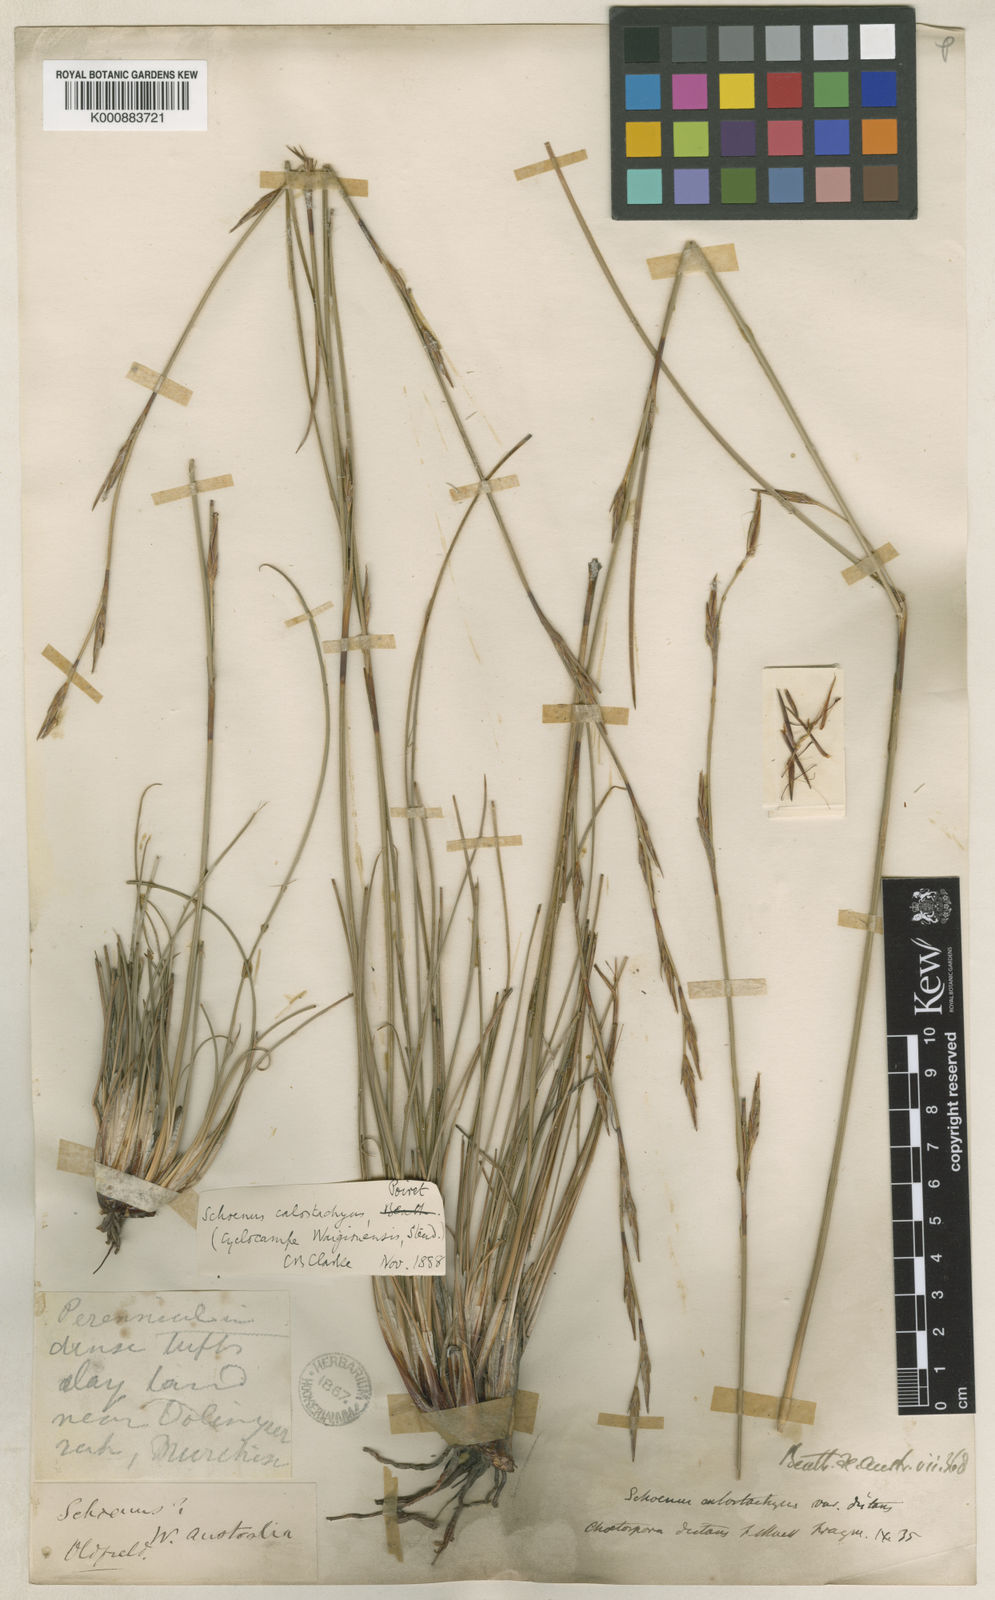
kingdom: Plantae
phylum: Tracheophyta
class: Liliopsida
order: Poales
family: Cyperaceae
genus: Schoenus
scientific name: Schoenus
